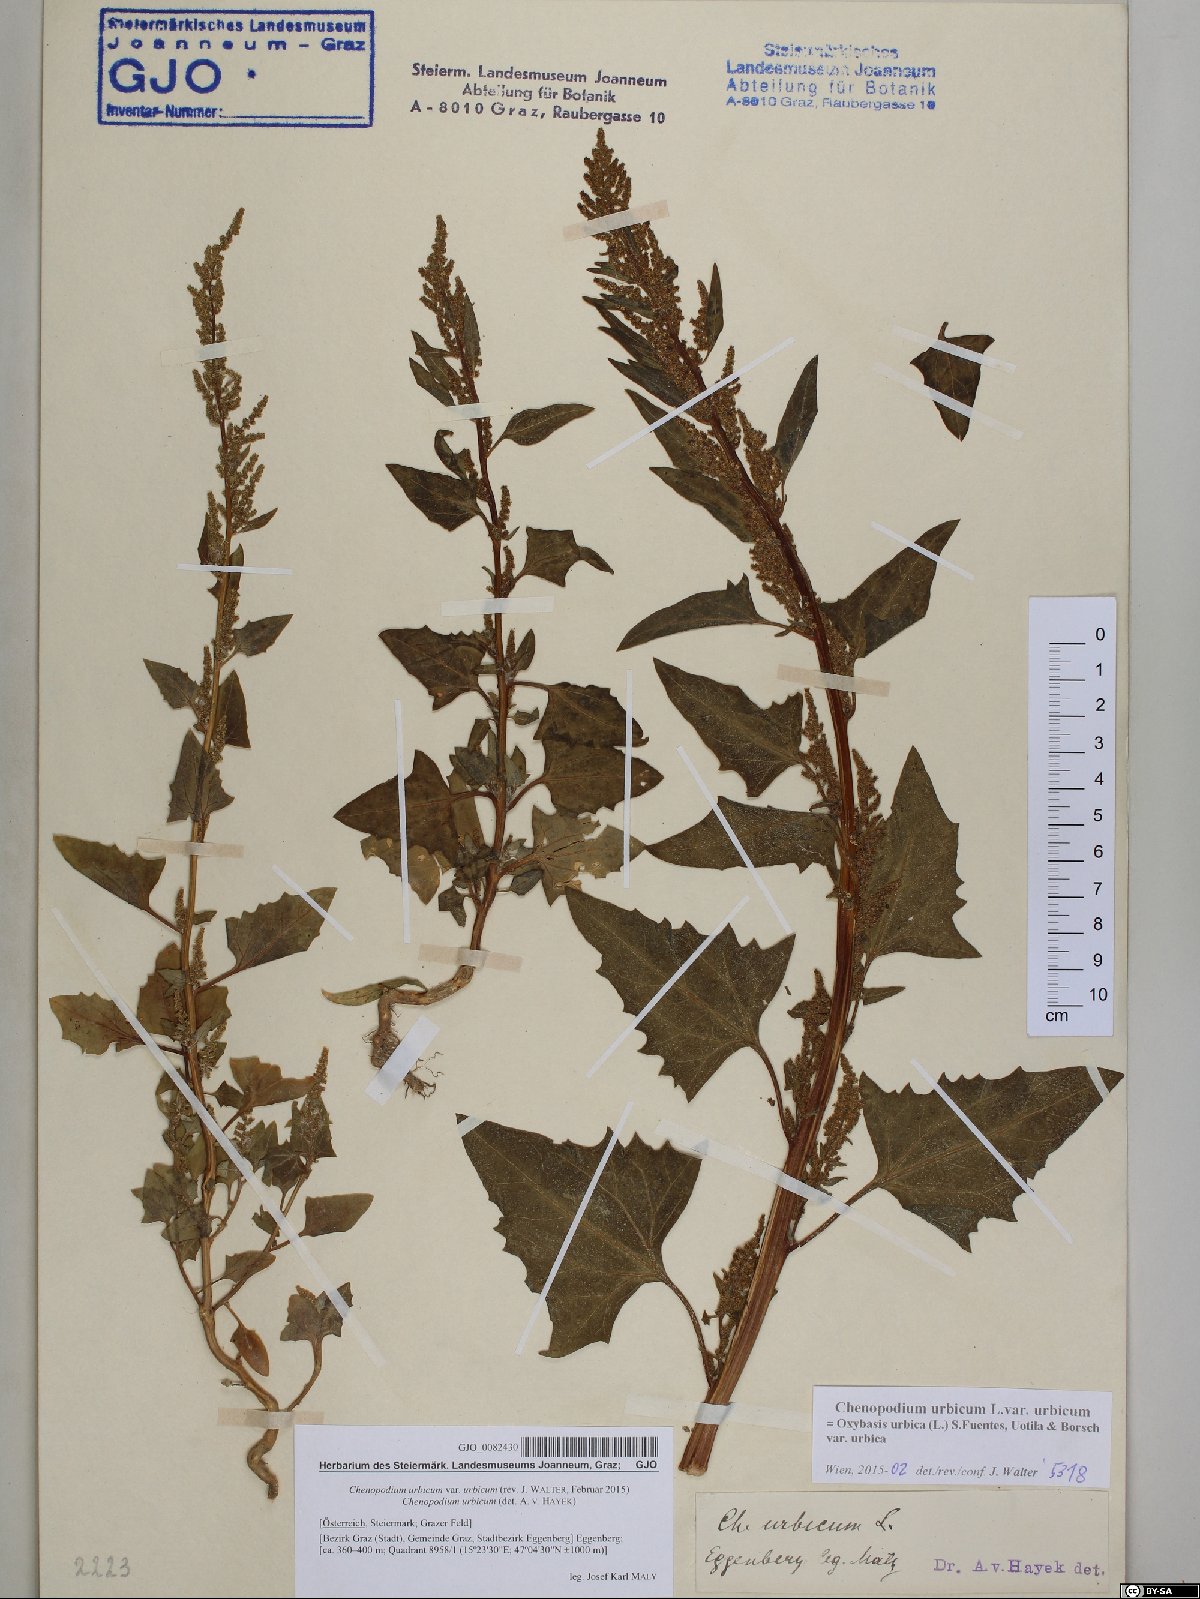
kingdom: Plantae
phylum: Tracheophyta
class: Magnoliopsida
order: Caryophyllales
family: Amaranthaceae
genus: Oxybasis
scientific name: Oxybasis urbica
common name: City goosefoot
